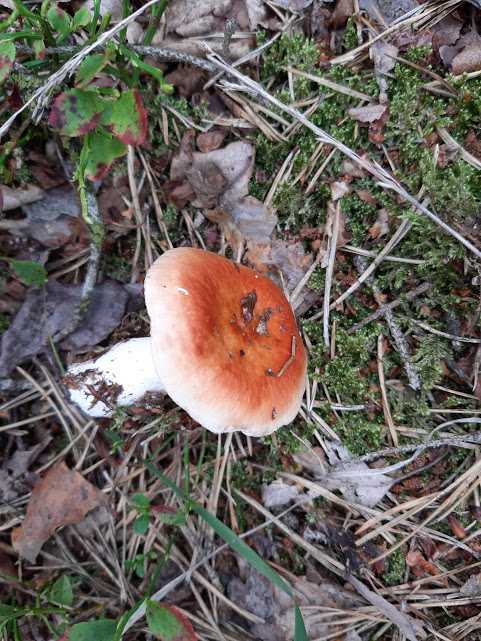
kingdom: Fungi
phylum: Basidiomycota
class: Agaricomycetes
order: Russulales
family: Russulaceae
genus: Russula
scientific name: Russula
